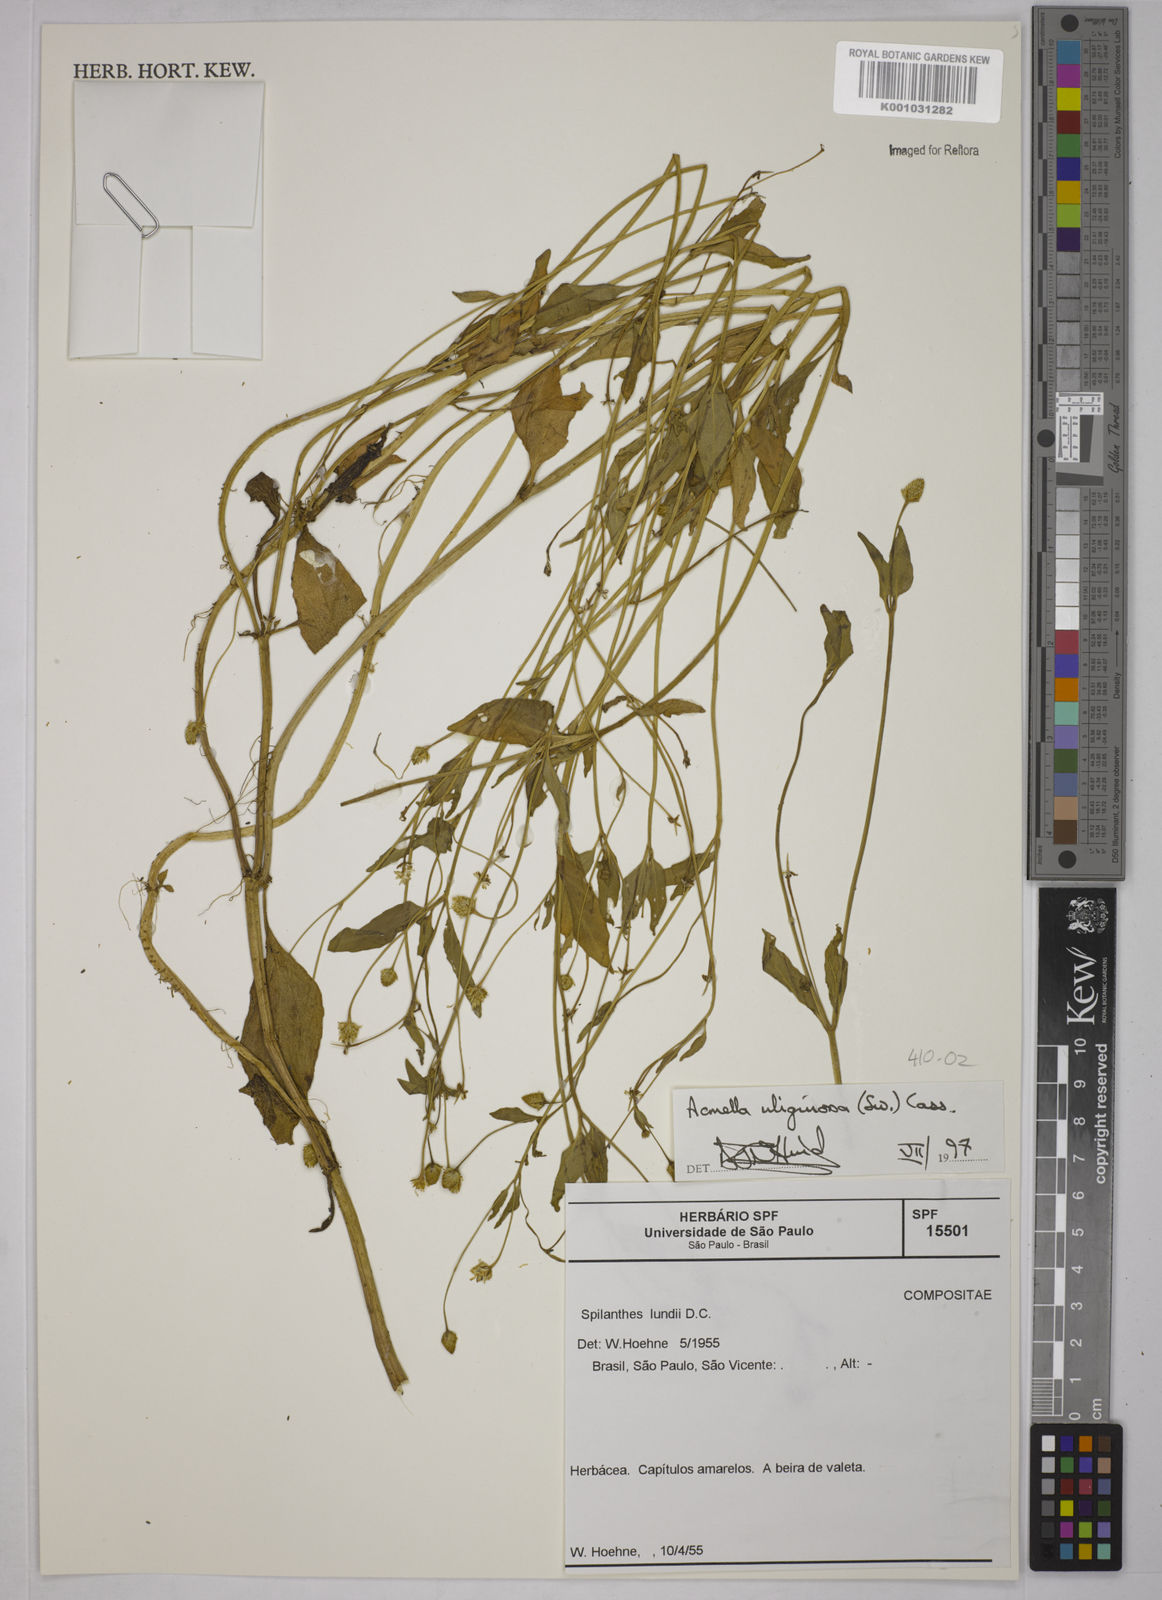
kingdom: Plantae
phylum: Tracheophyta
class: Magnoliopsida
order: Asterales
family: Asteraceae
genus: Acmella
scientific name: Acmella uliginosa
